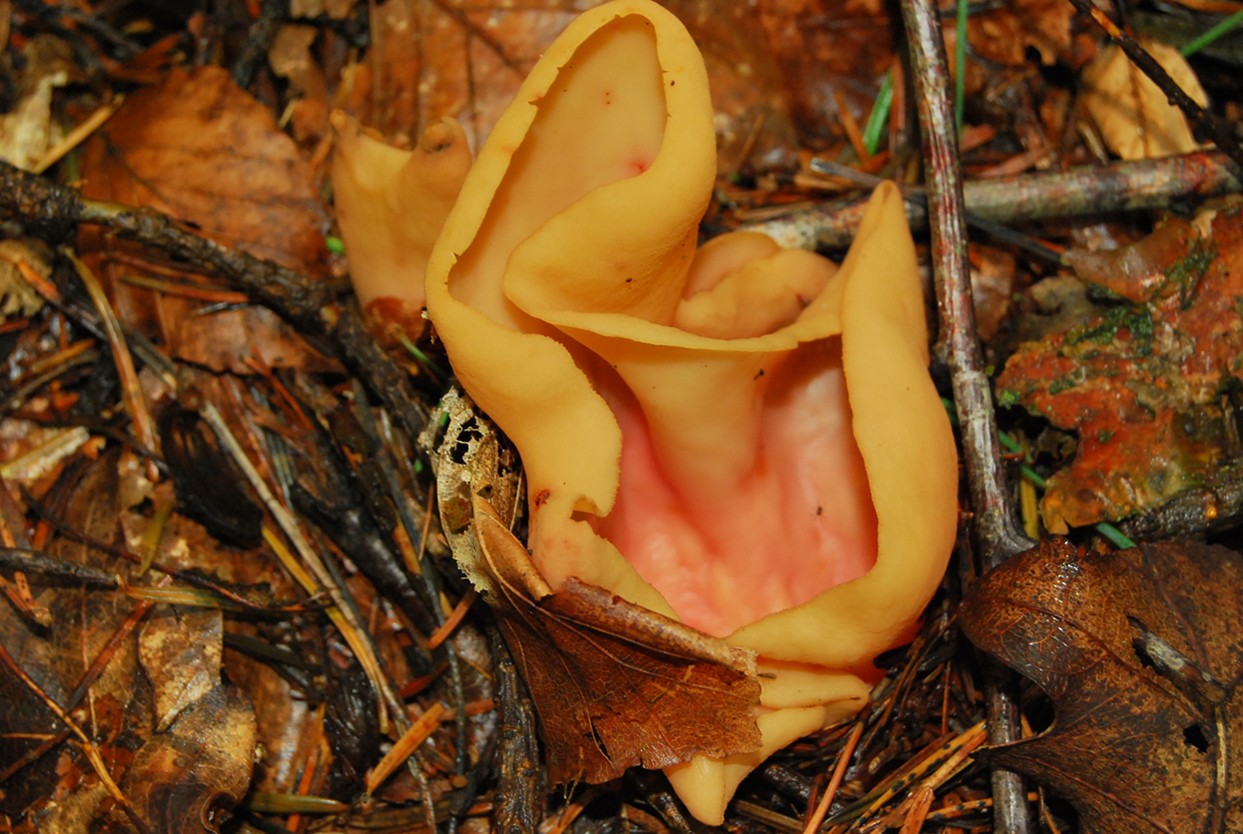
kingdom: Fungi
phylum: Ascomycota
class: Pezizomycetes
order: Pezizales
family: Otideaceae
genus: Otidea
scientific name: Otidea onotica
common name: æsel-ørebæger
